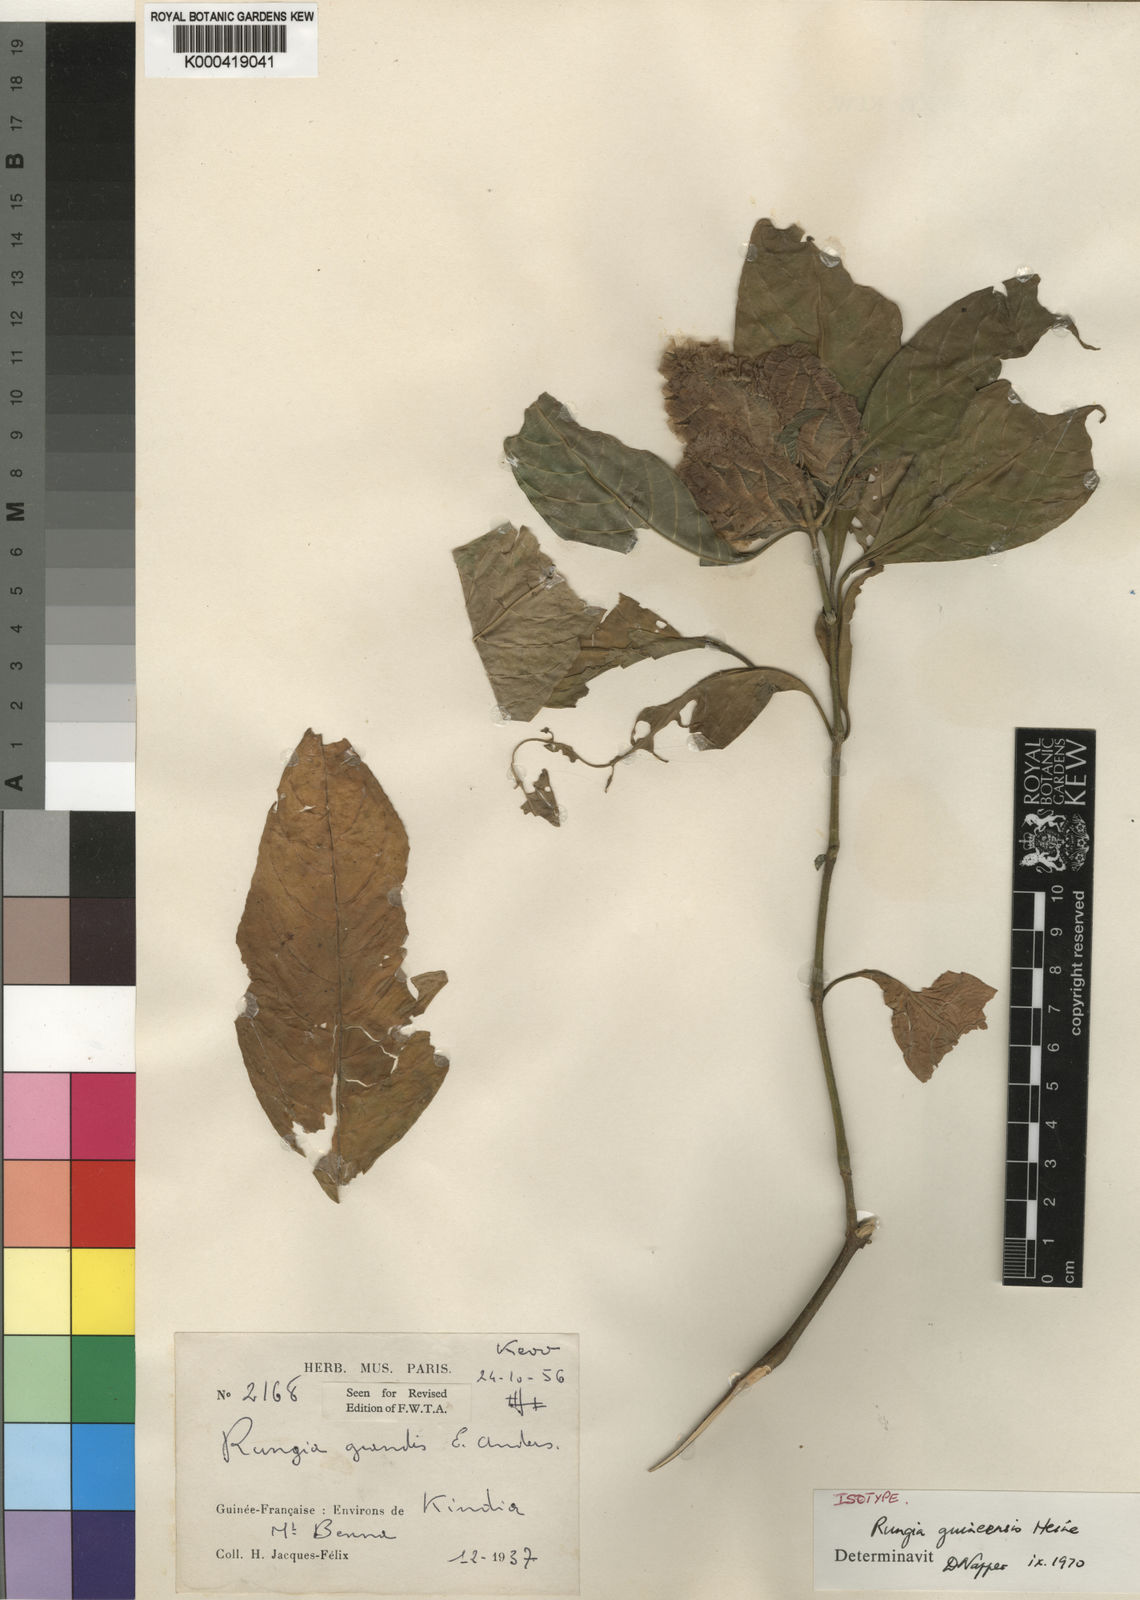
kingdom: Plantae
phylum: Tracheophyta
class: Magnoliopsida
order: Lamiales
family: Acanthaceae
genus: Justicia
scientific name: Justicia
